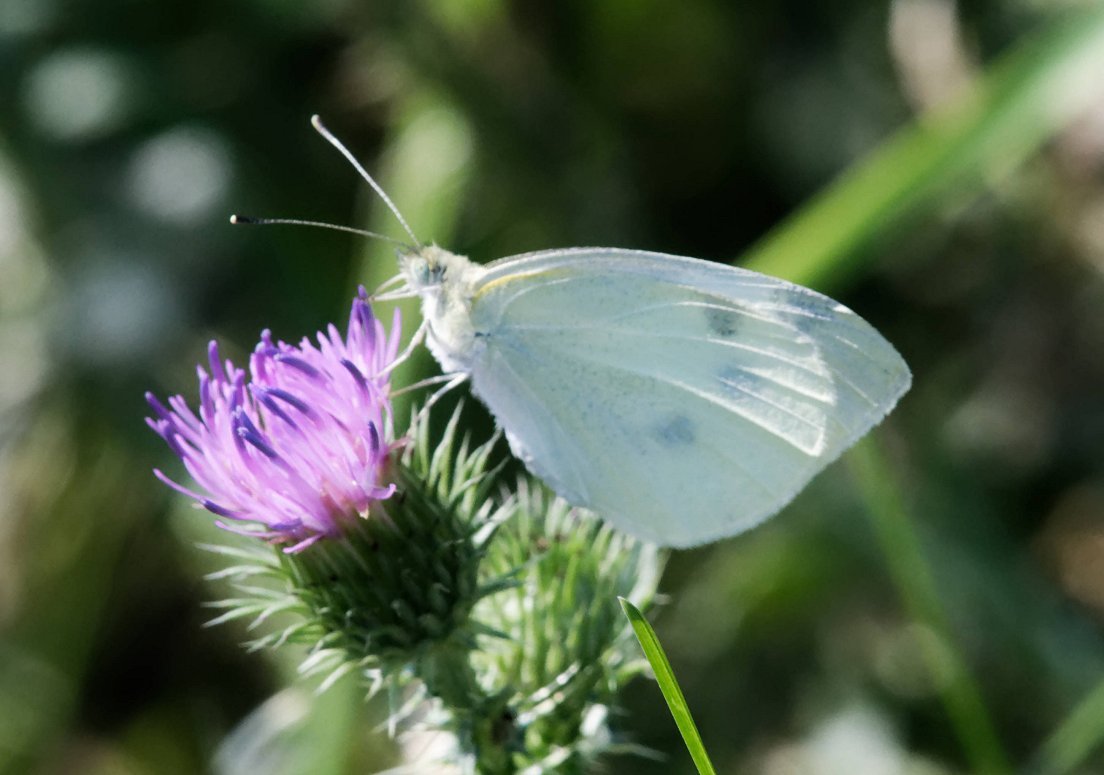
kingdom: Animalia
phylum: Arthropoda
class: Insecta
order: Lepidoptera
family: Pieridae
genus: Pieris
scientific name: Pieris rapae
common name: Cabbage White
